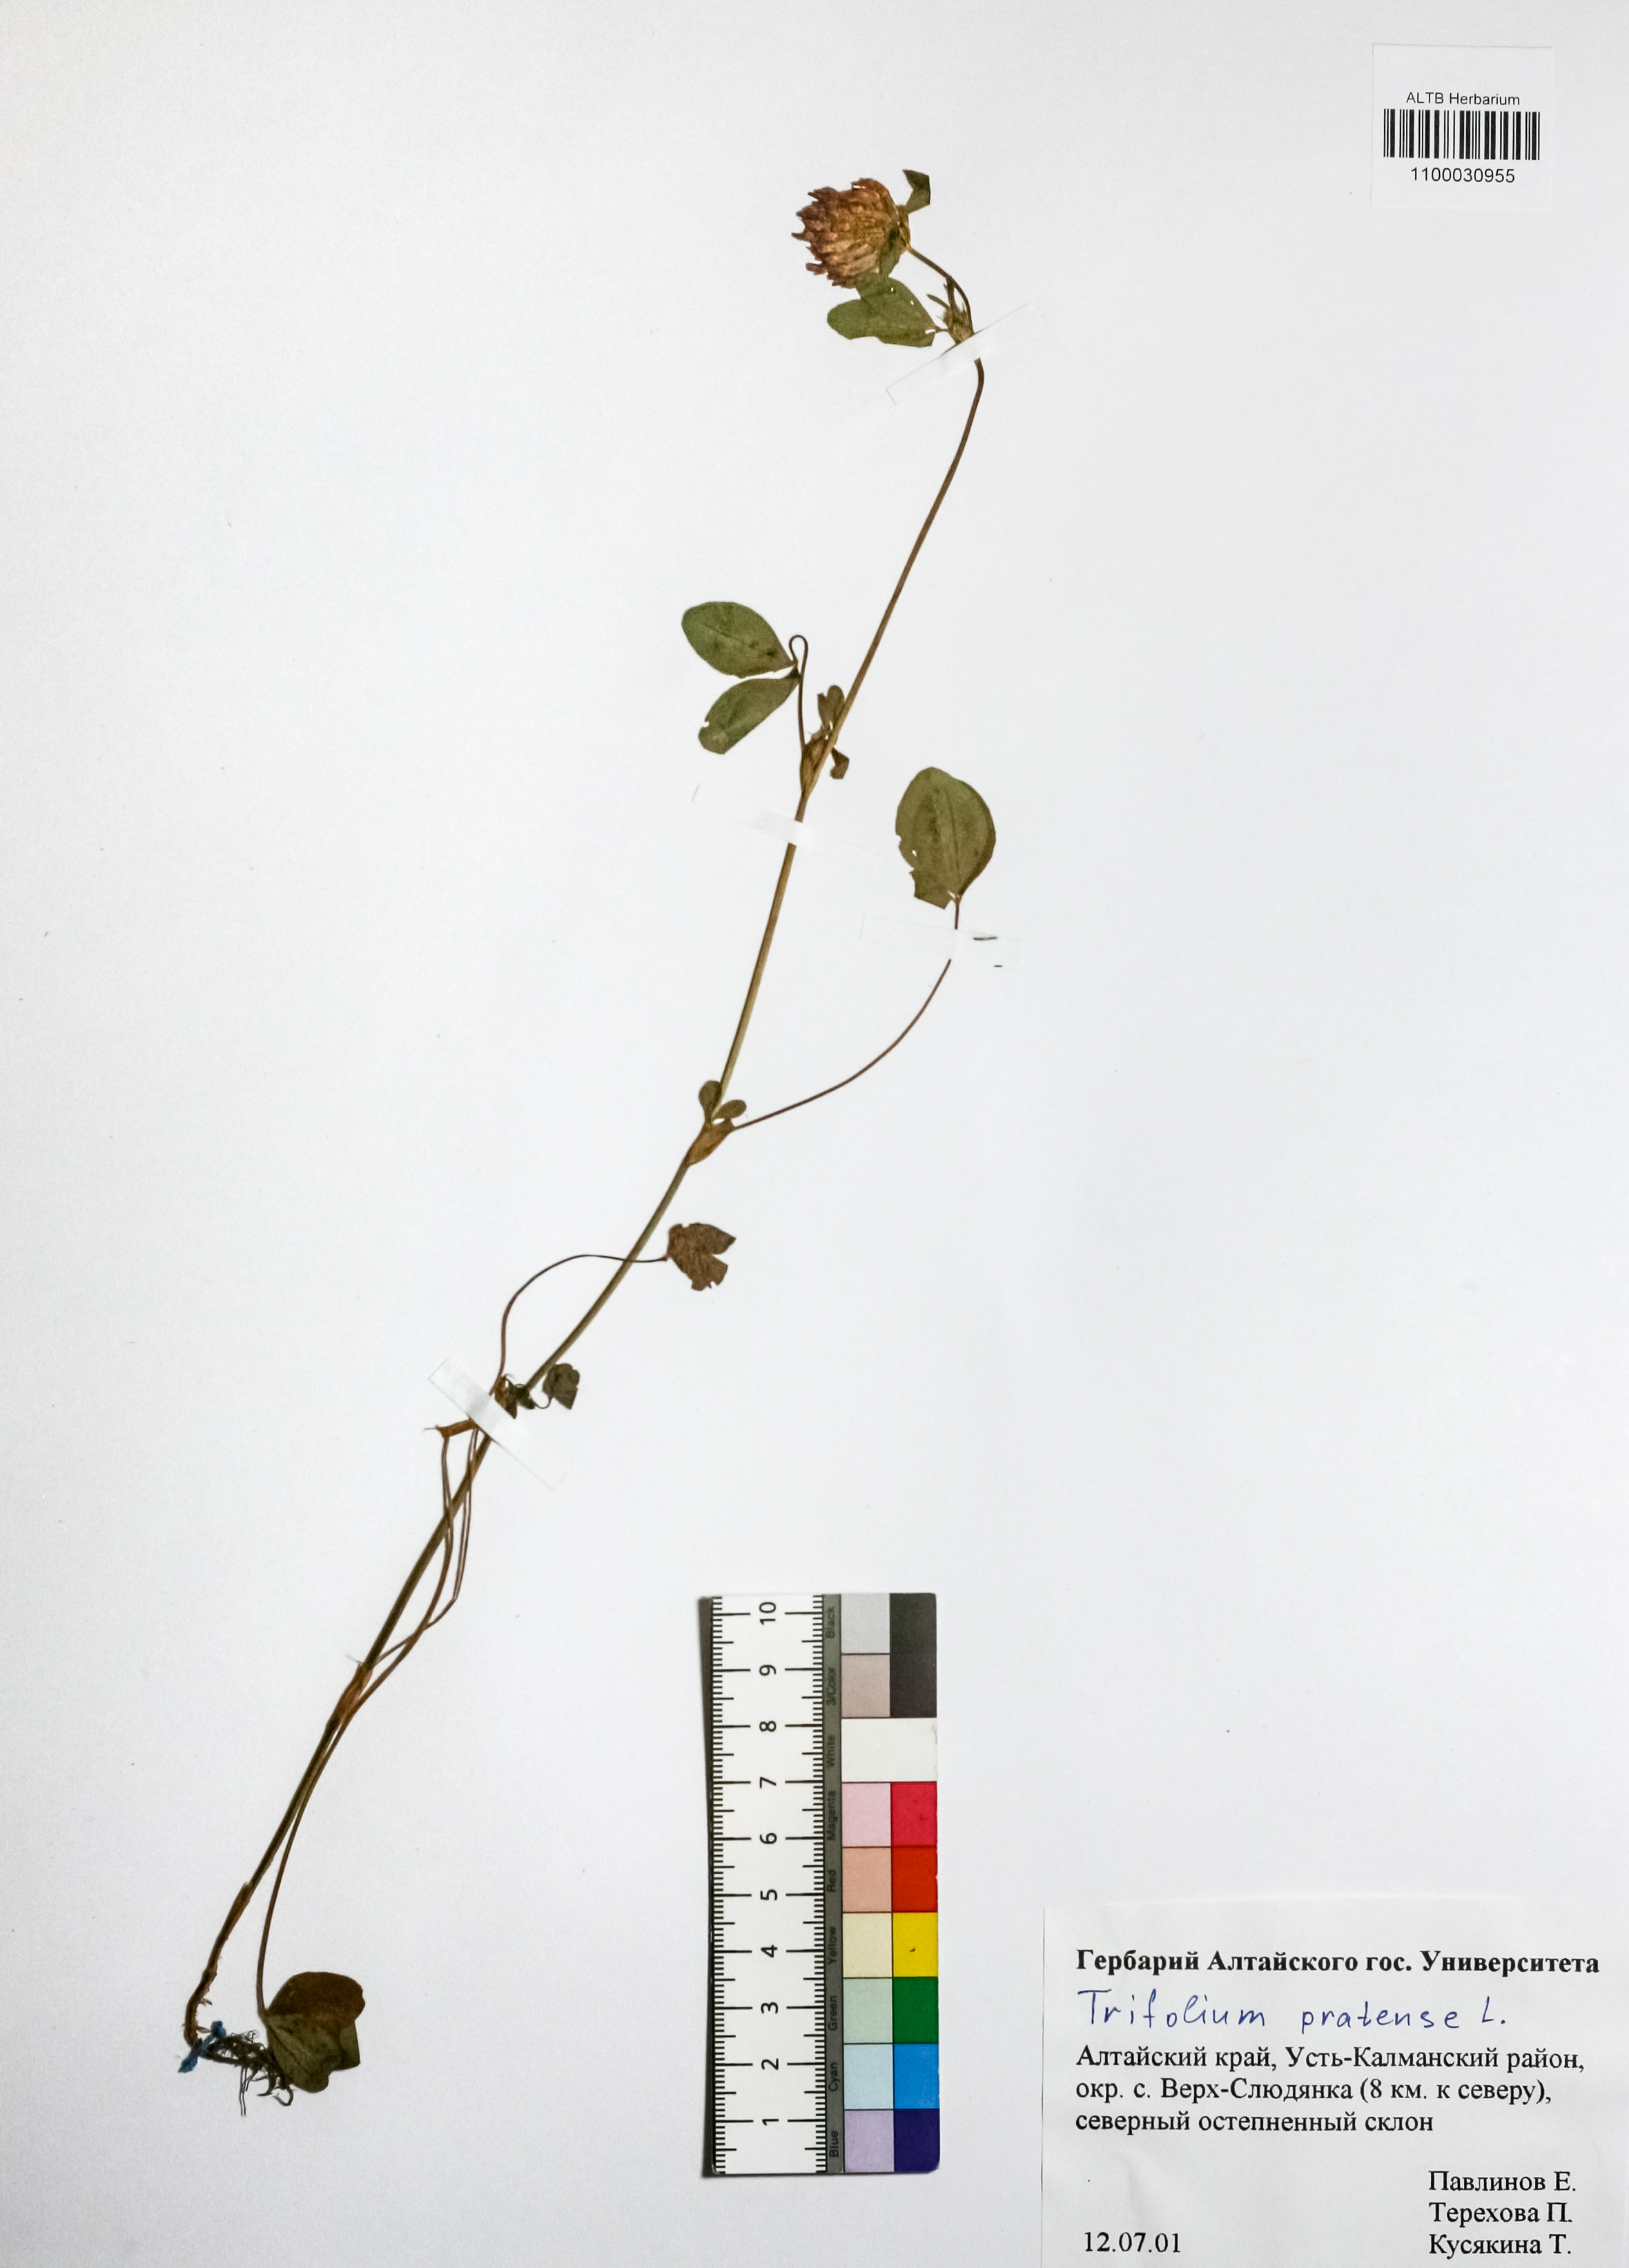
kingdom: Plantae
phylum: Tracheophyta
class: Magnoliopsida
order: Fabales
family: Fabaceae
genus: Trifolium
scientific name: Trifolium pratense
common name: Red clover
